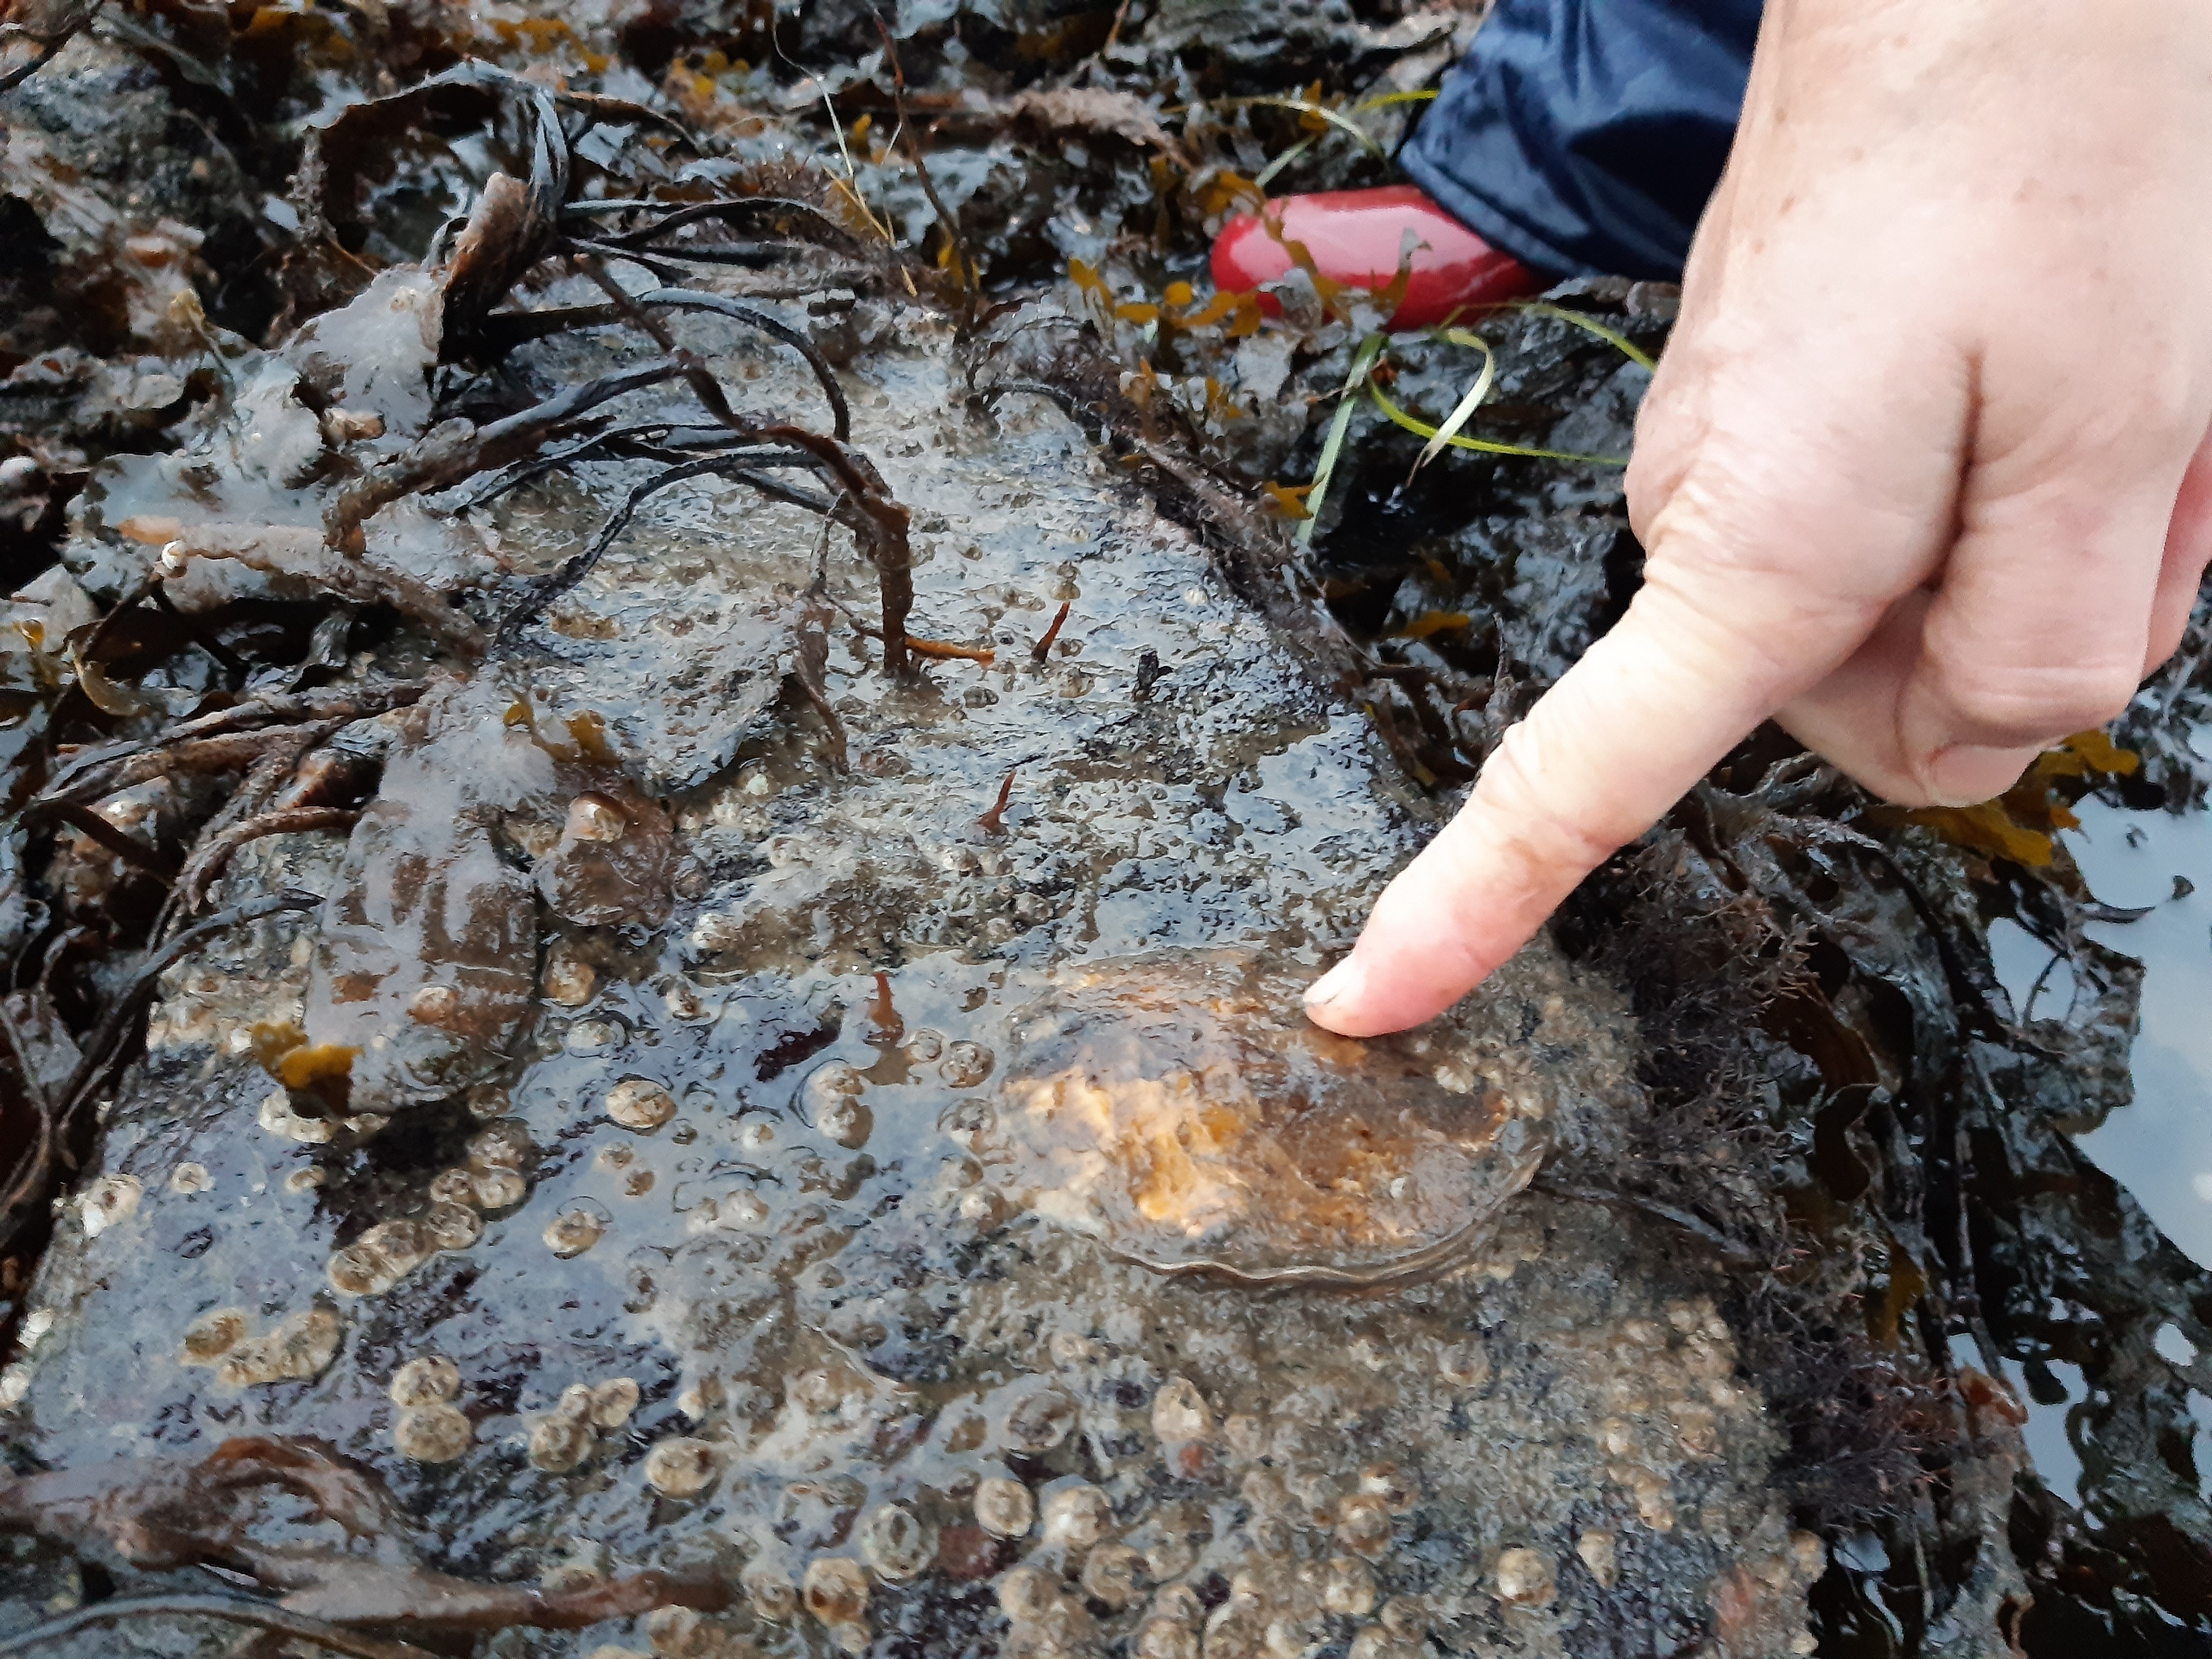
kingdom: Animalia
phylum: Mollusca
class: Bivalvia
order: Ostreida
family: Ostreidae
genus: Magallana
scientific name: Magallana gigas
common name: Stillehavsøsters
